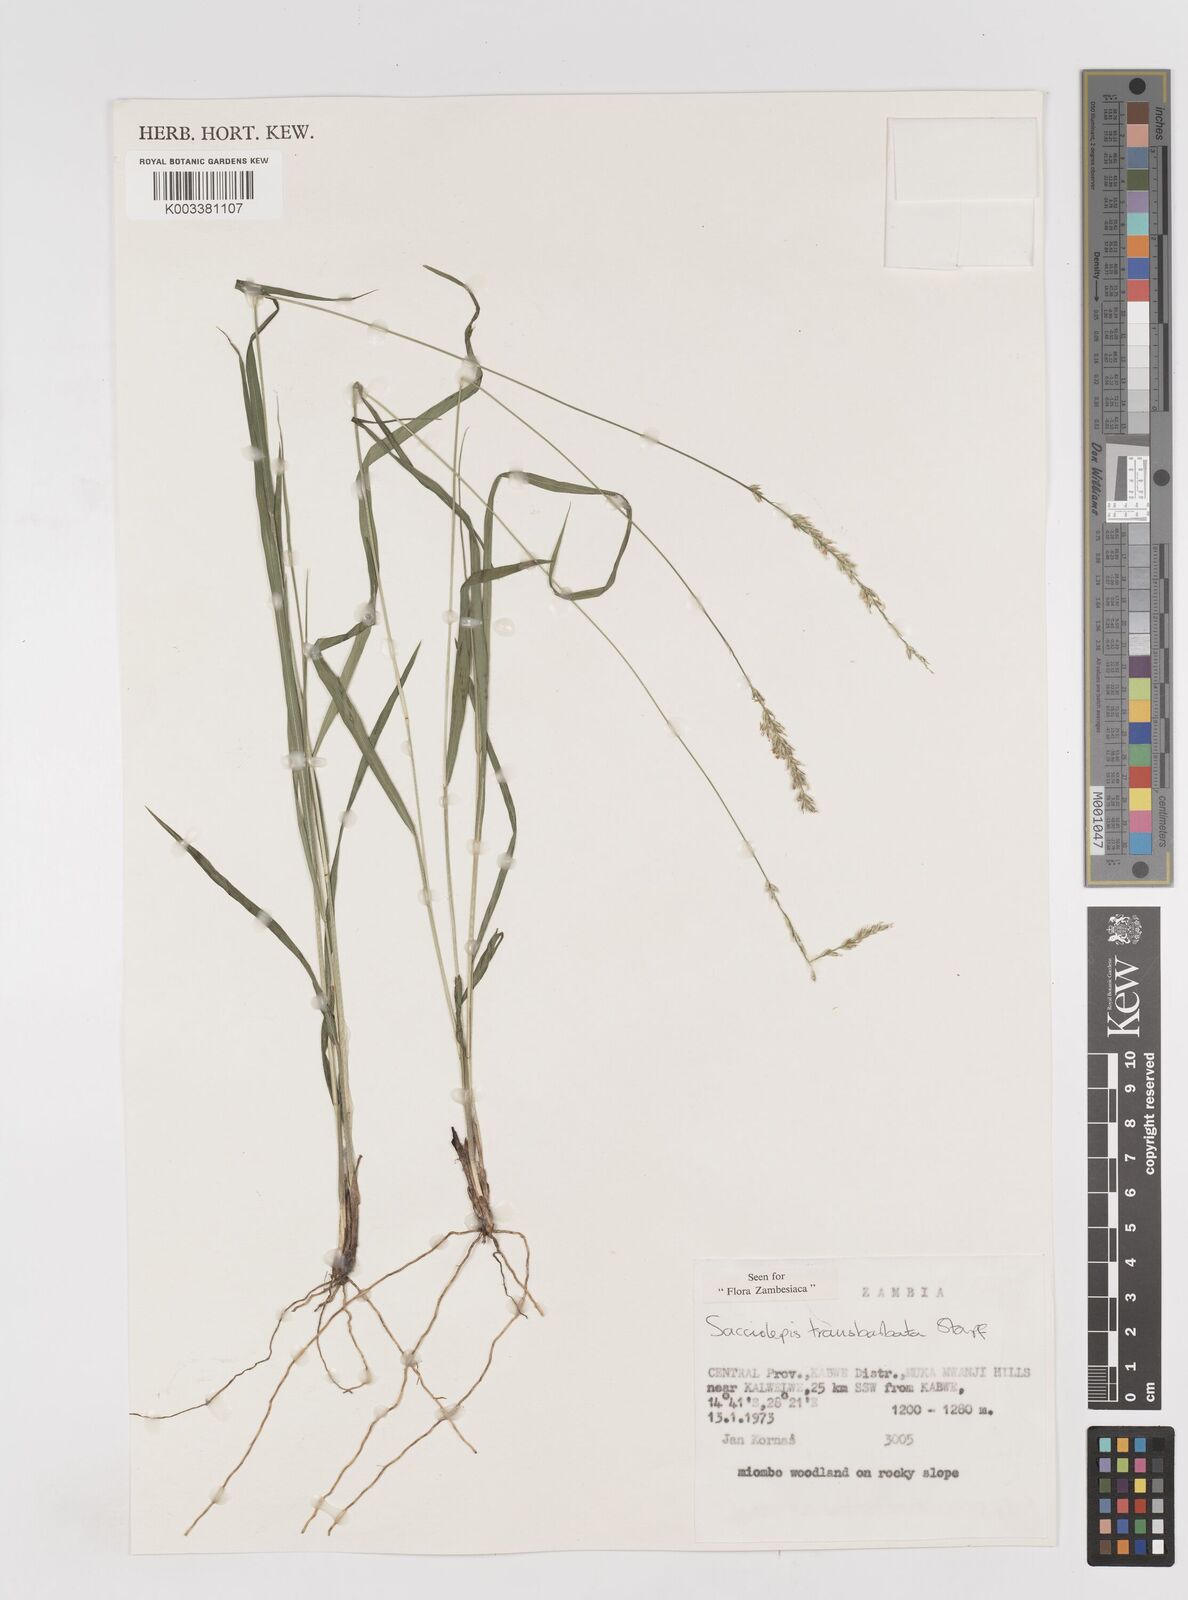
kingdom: Plantae
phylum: Tracheophyta
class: Liliopsida
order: Poales
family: Poaceae
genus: Sacciolepis
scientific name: Sacciolepis transbarbata
